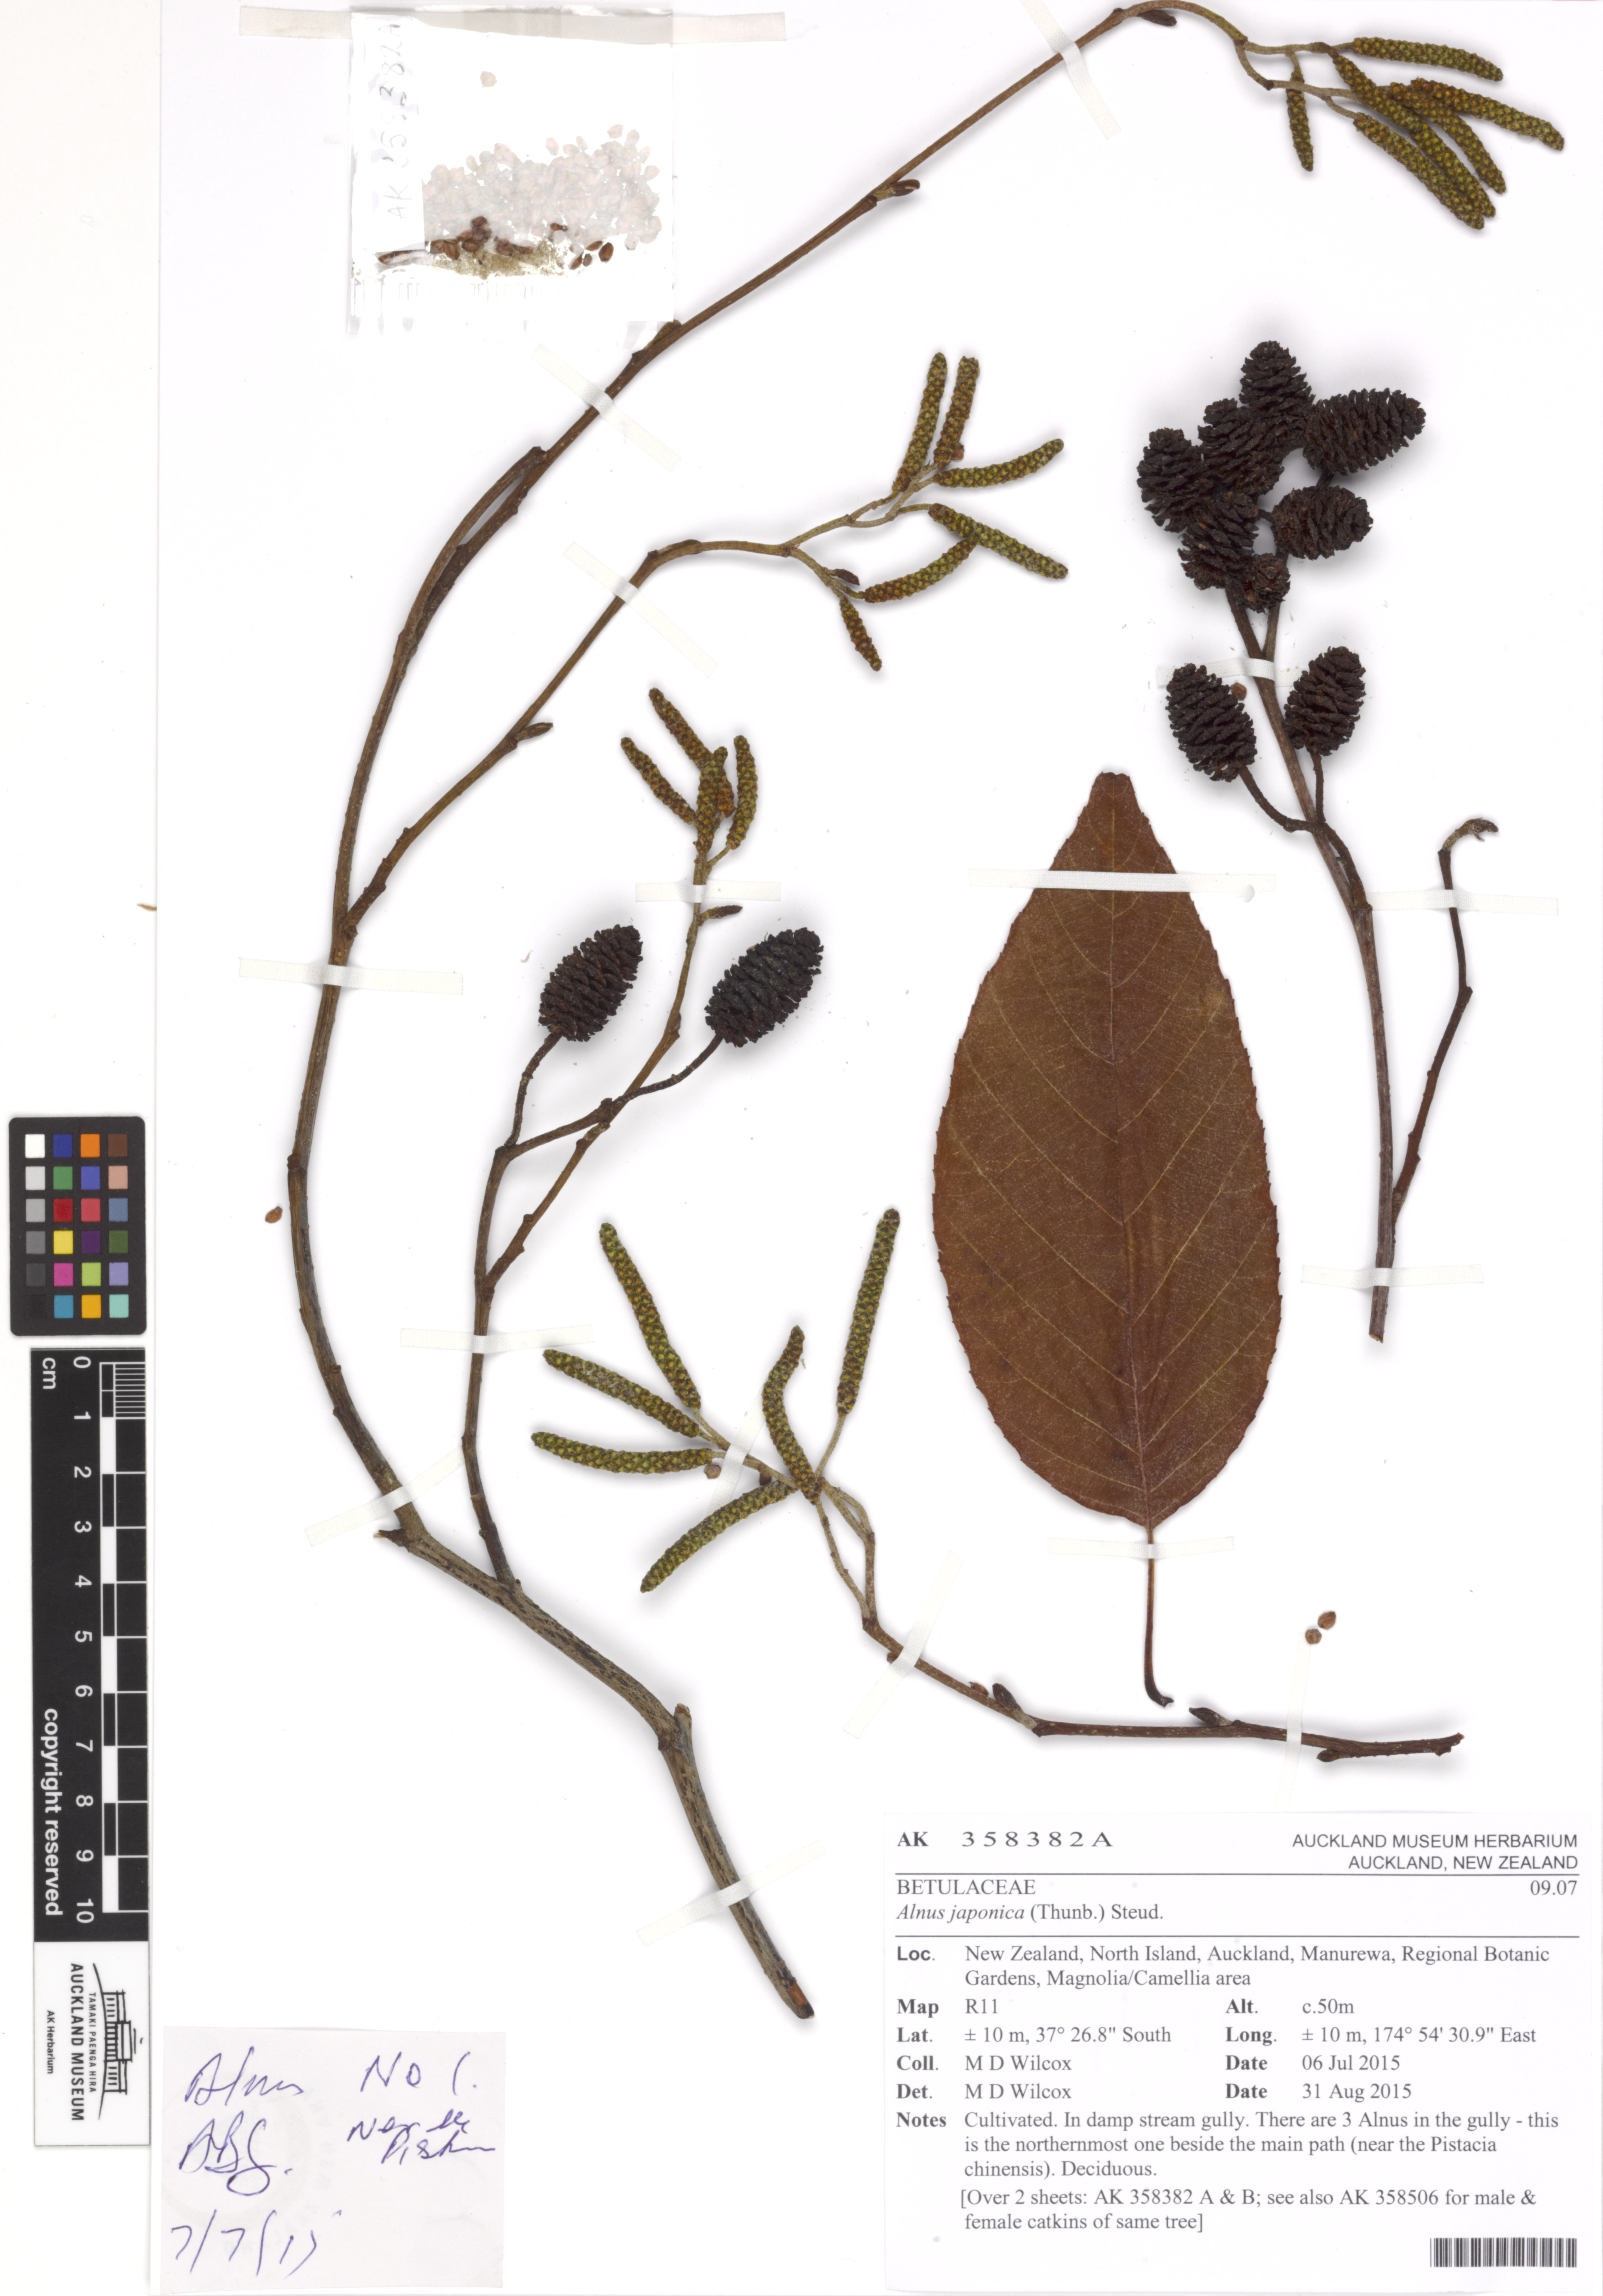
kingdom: Plantae
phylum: Tracheophyta
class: Magnoliopsida
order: Fagales
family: Betulaceae
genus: Alnus
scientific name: Alnus japonica
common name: Japanese alder
